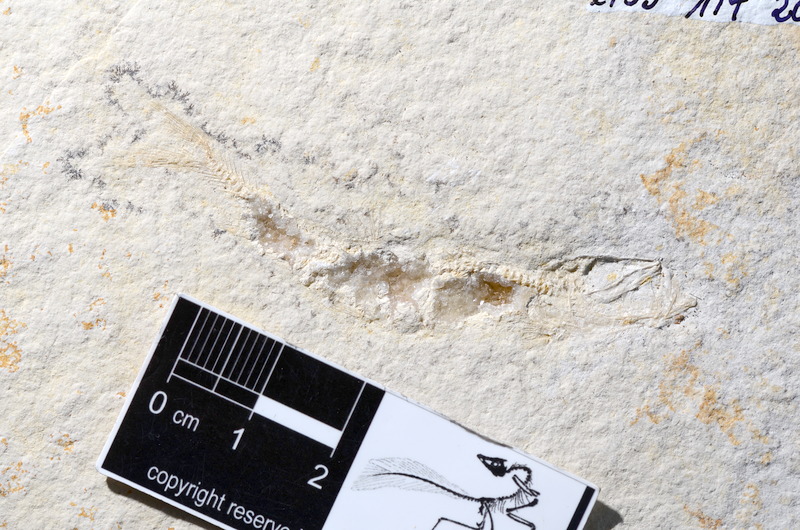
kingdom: Animalia
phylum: Chordata
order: Salmoniformes
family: Orthogonikleithridae
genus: Leptolepides
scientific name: Leptolepides sprattiformis
